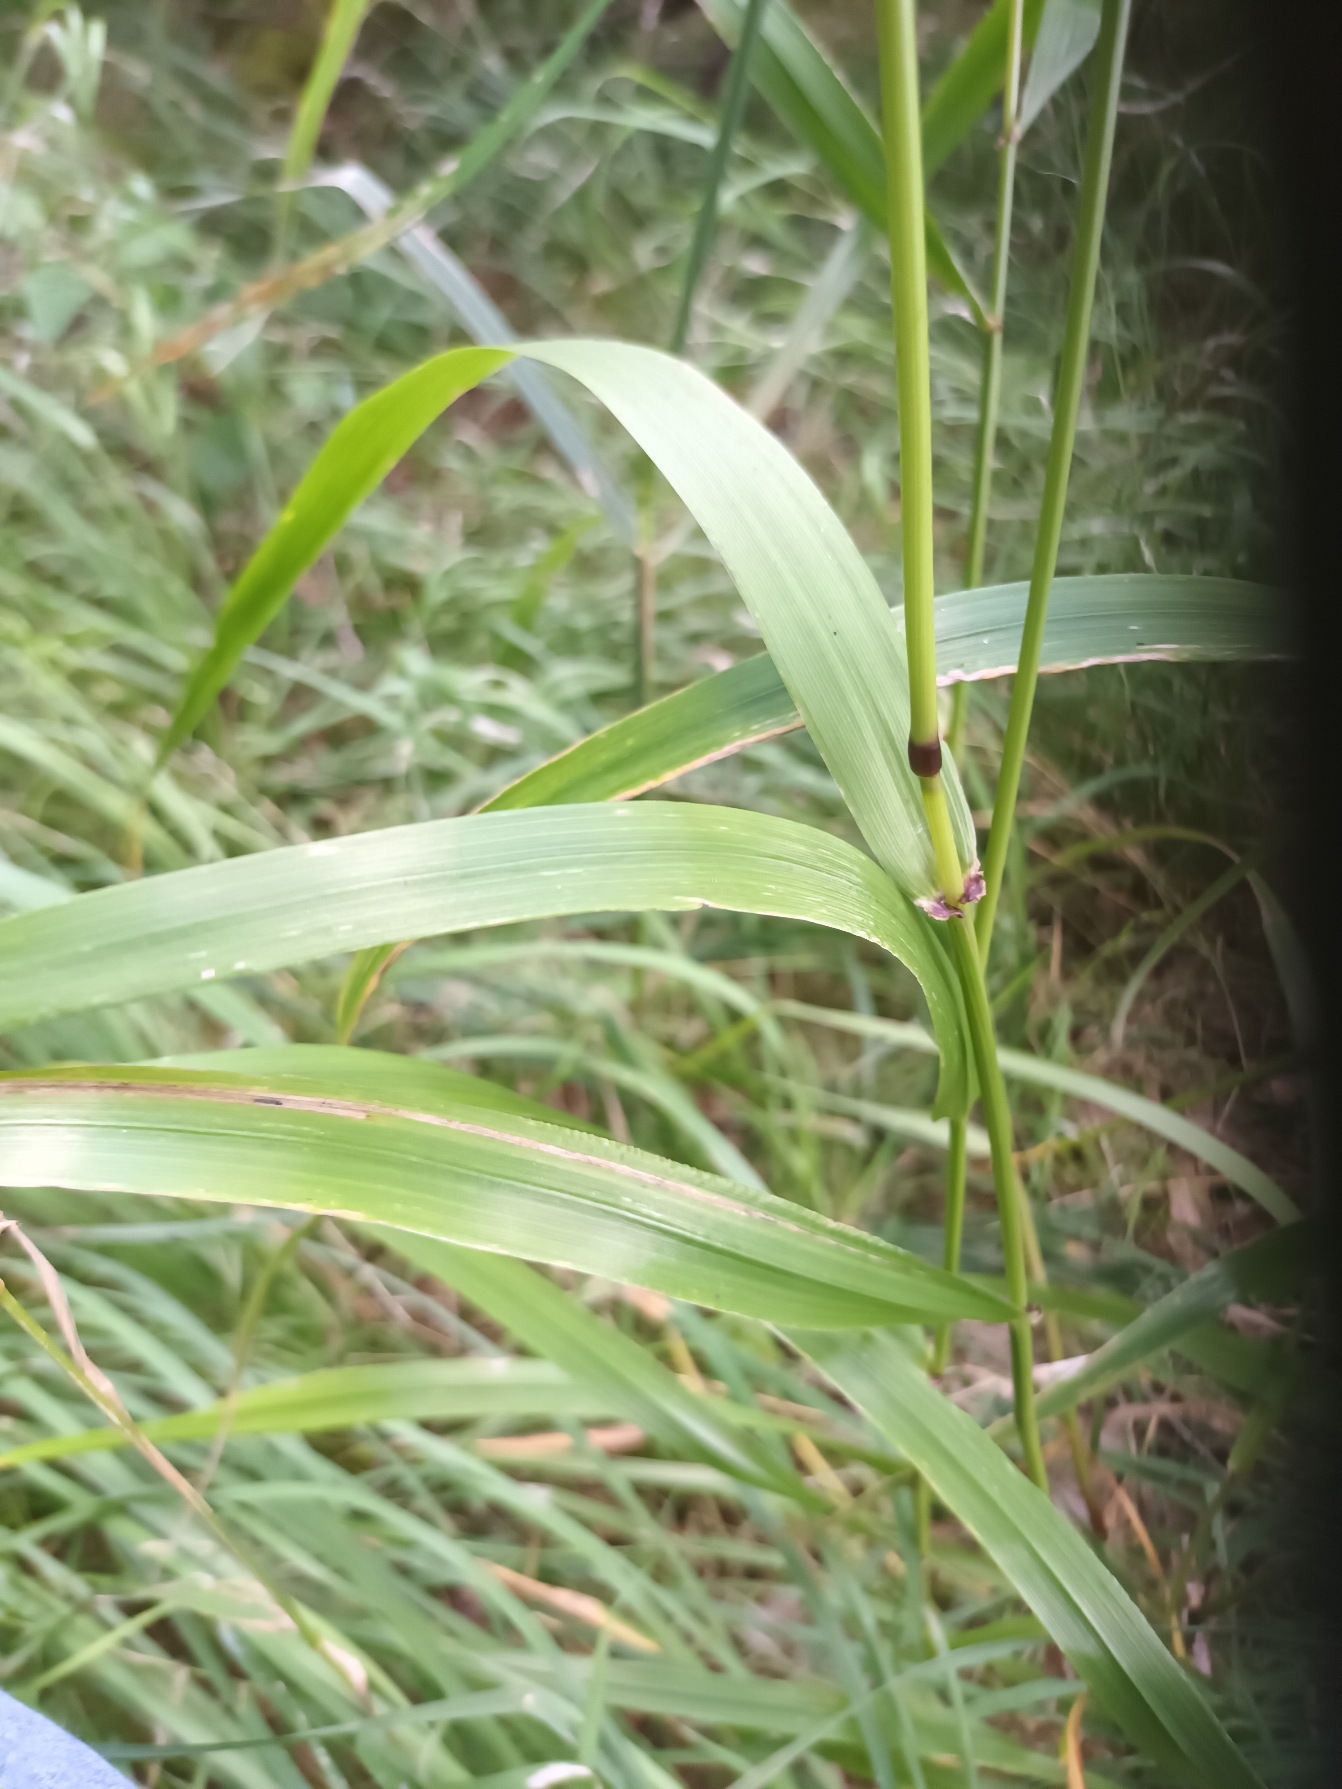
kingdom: Plantae
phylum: Tracheophyta
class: Liliopsida
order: Poales
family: Poaceae
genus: Lolium
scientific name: Lolium giganteum
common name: Kæmpe-svingel
